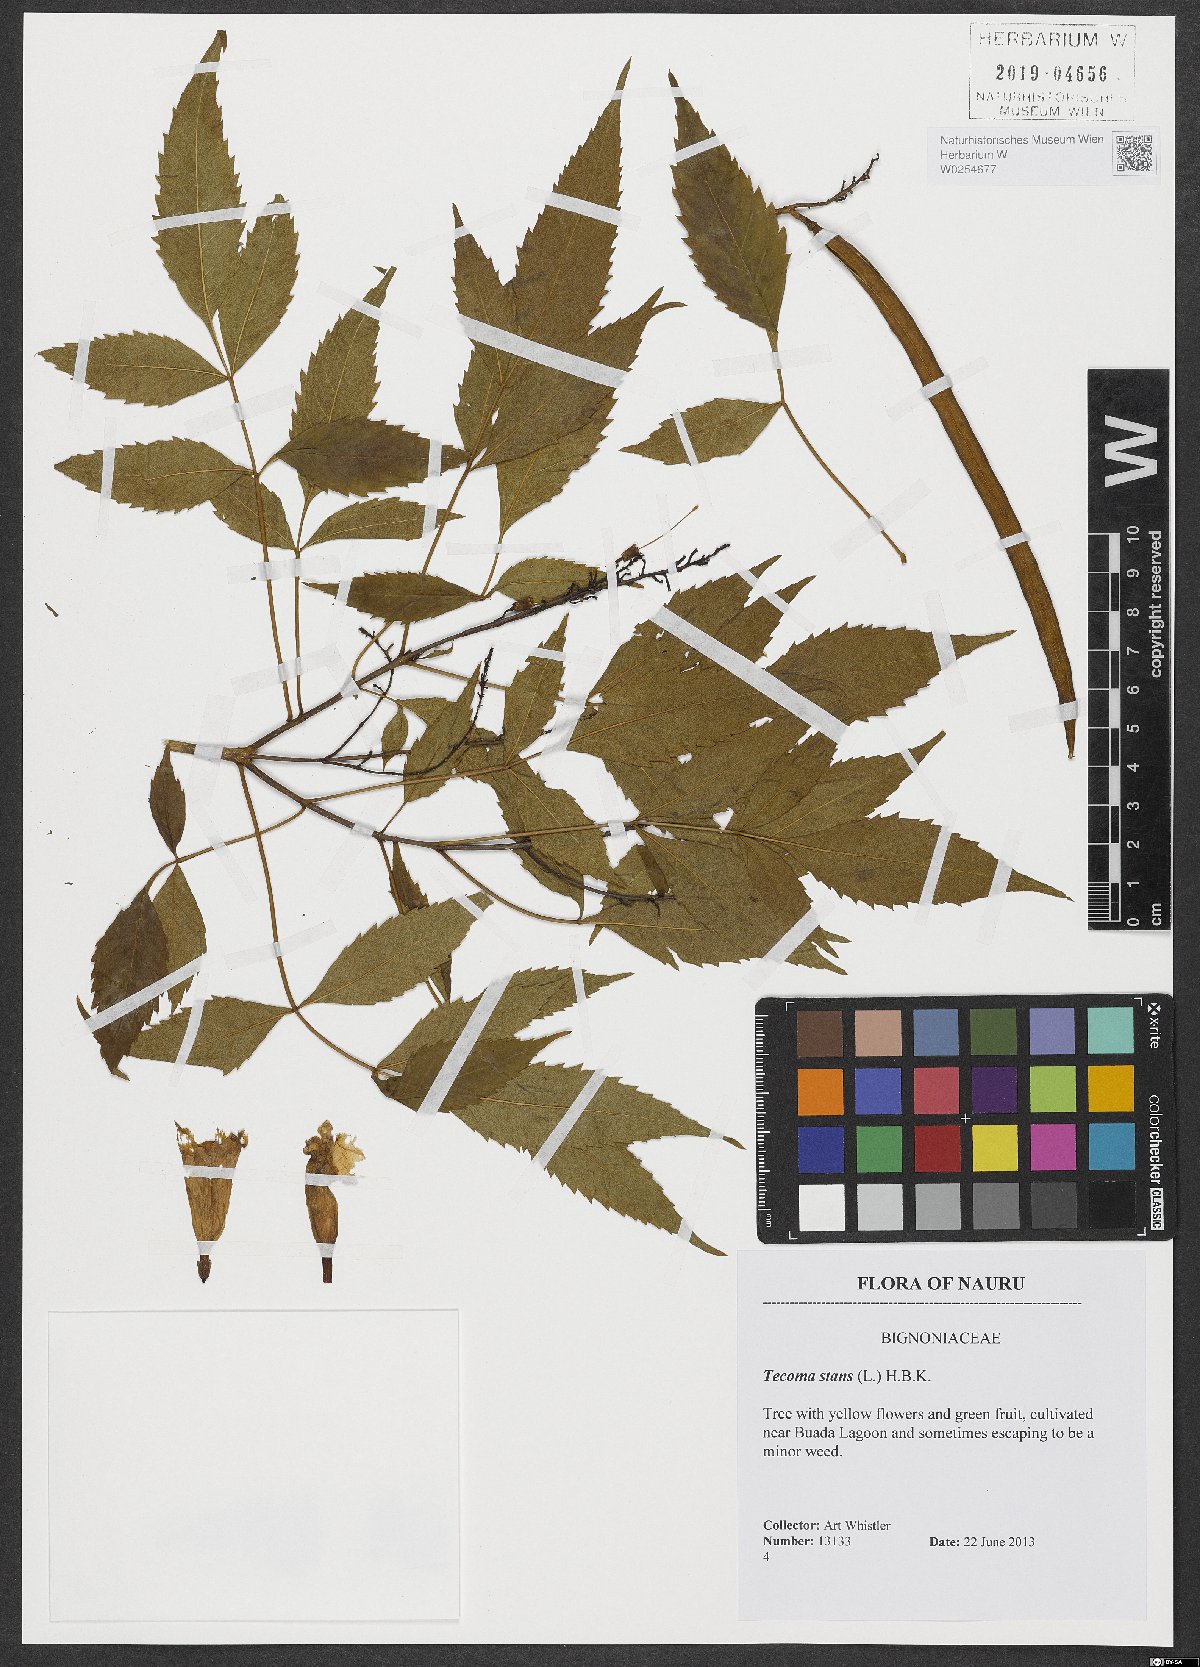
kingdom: Plantae
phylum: Tracheophyta
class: Magnoliopsida
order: Lamiales
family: Bignoniaceae
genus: Tecoma
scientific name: Tecoma stans
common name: Yellow trumpetbush
